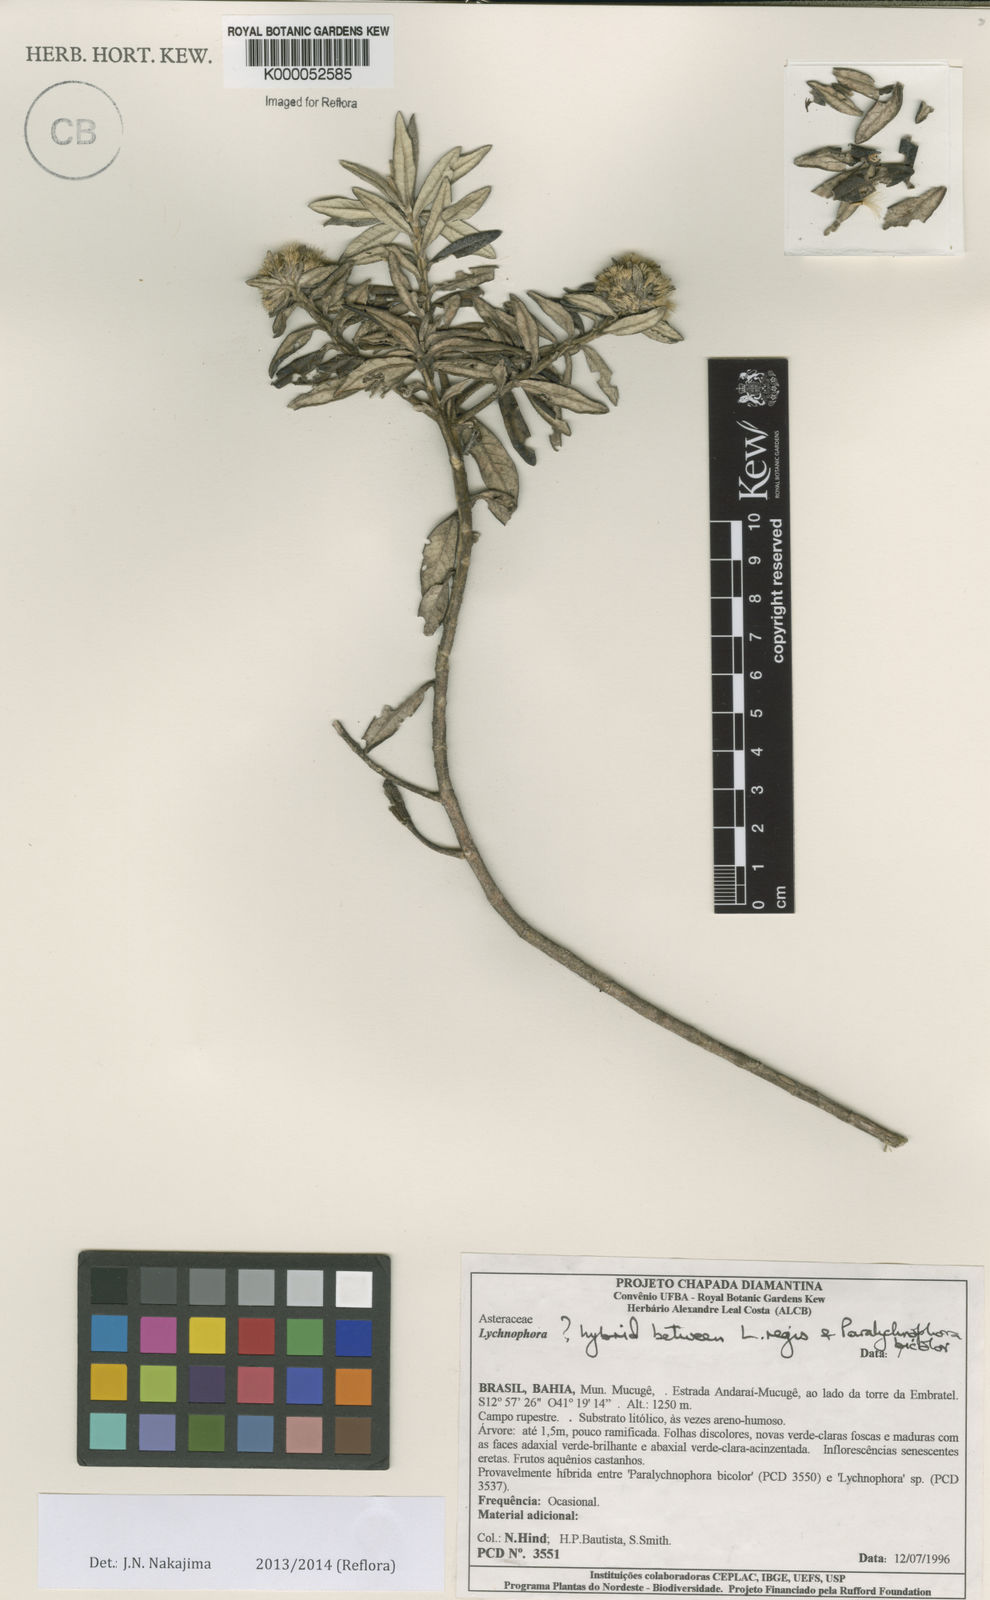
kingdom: Plantae
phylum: Tracheophyta
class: Magnoliopsida
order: Asterales
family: Asteraceae
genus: Lychnophora
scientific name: Lychnophora
